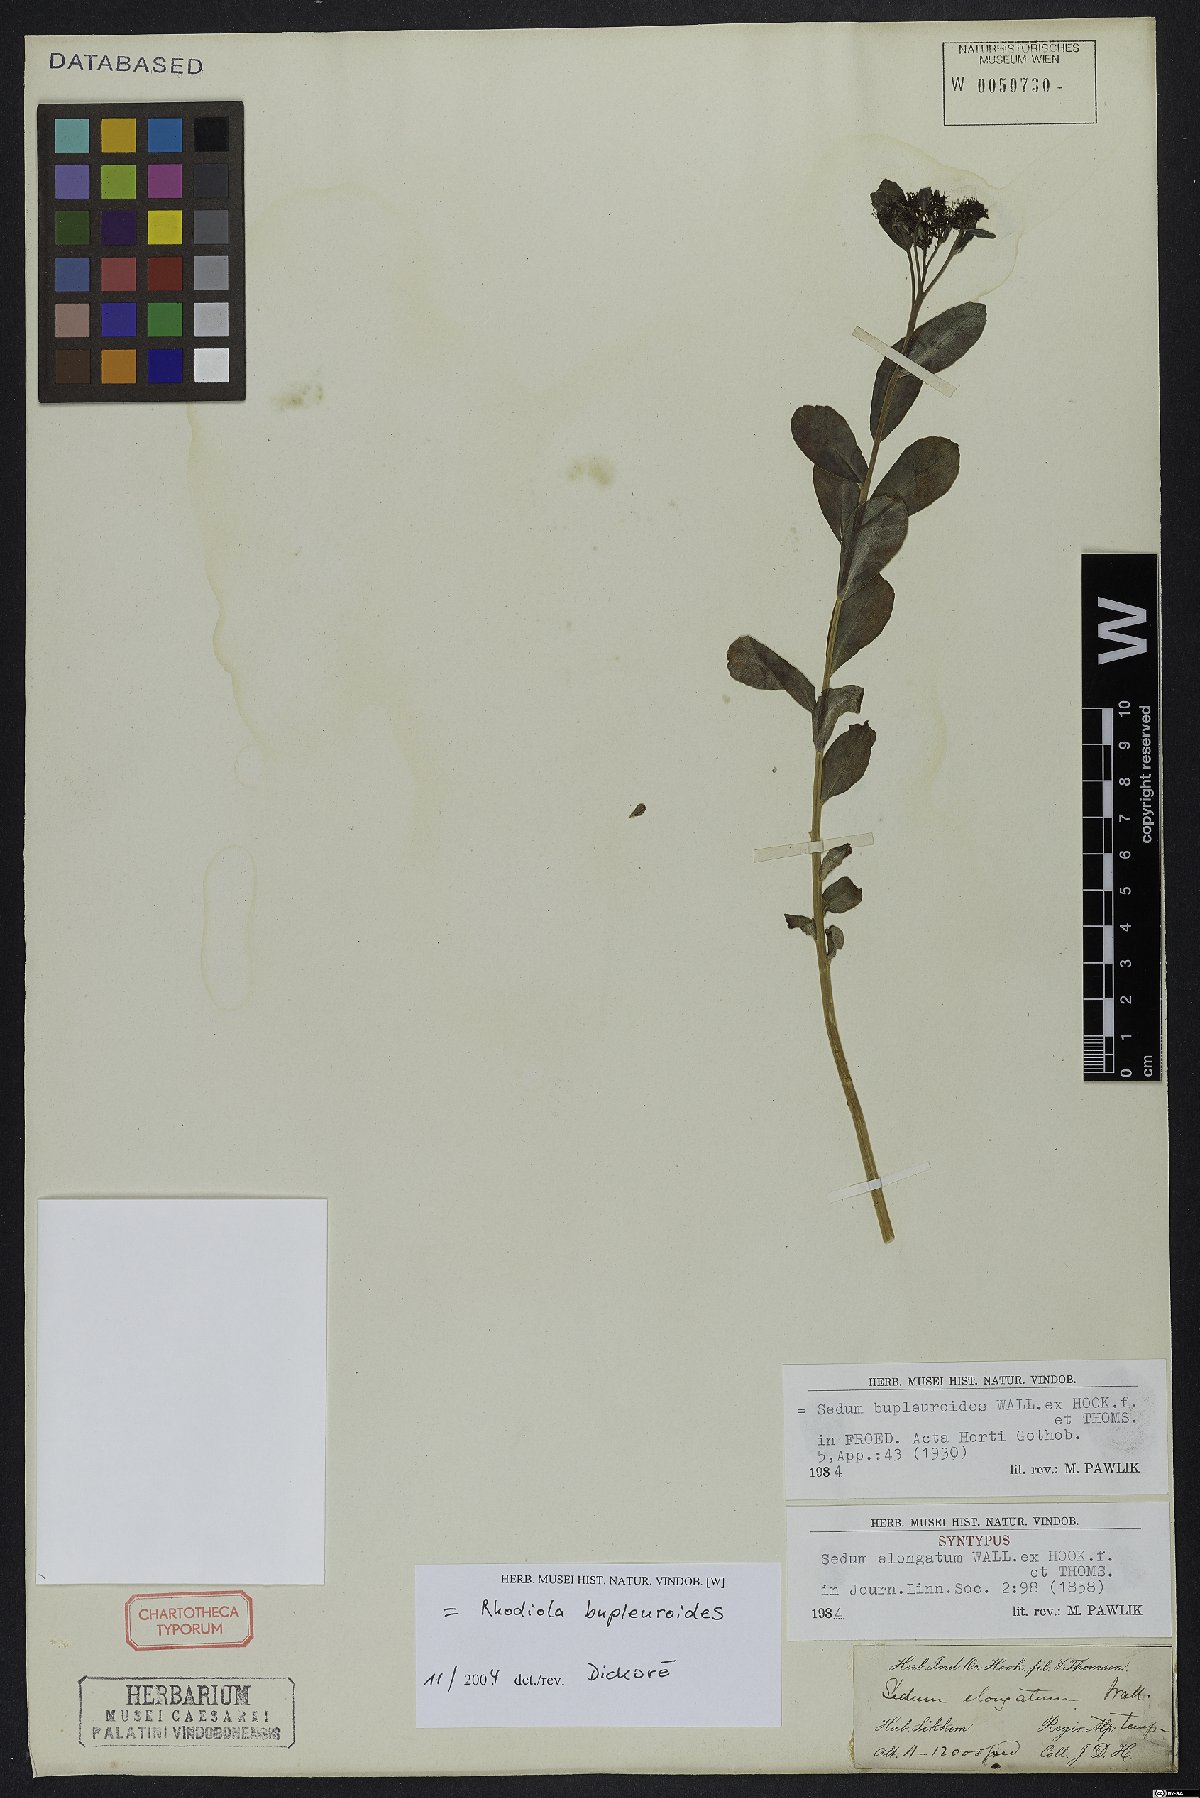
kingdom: Plantae
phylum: Tracheophyta
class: Magnoliopsida
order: Saxifragales
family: Crassulaceae
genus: Rhodiola
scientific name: Rhodiola bupleuroides
